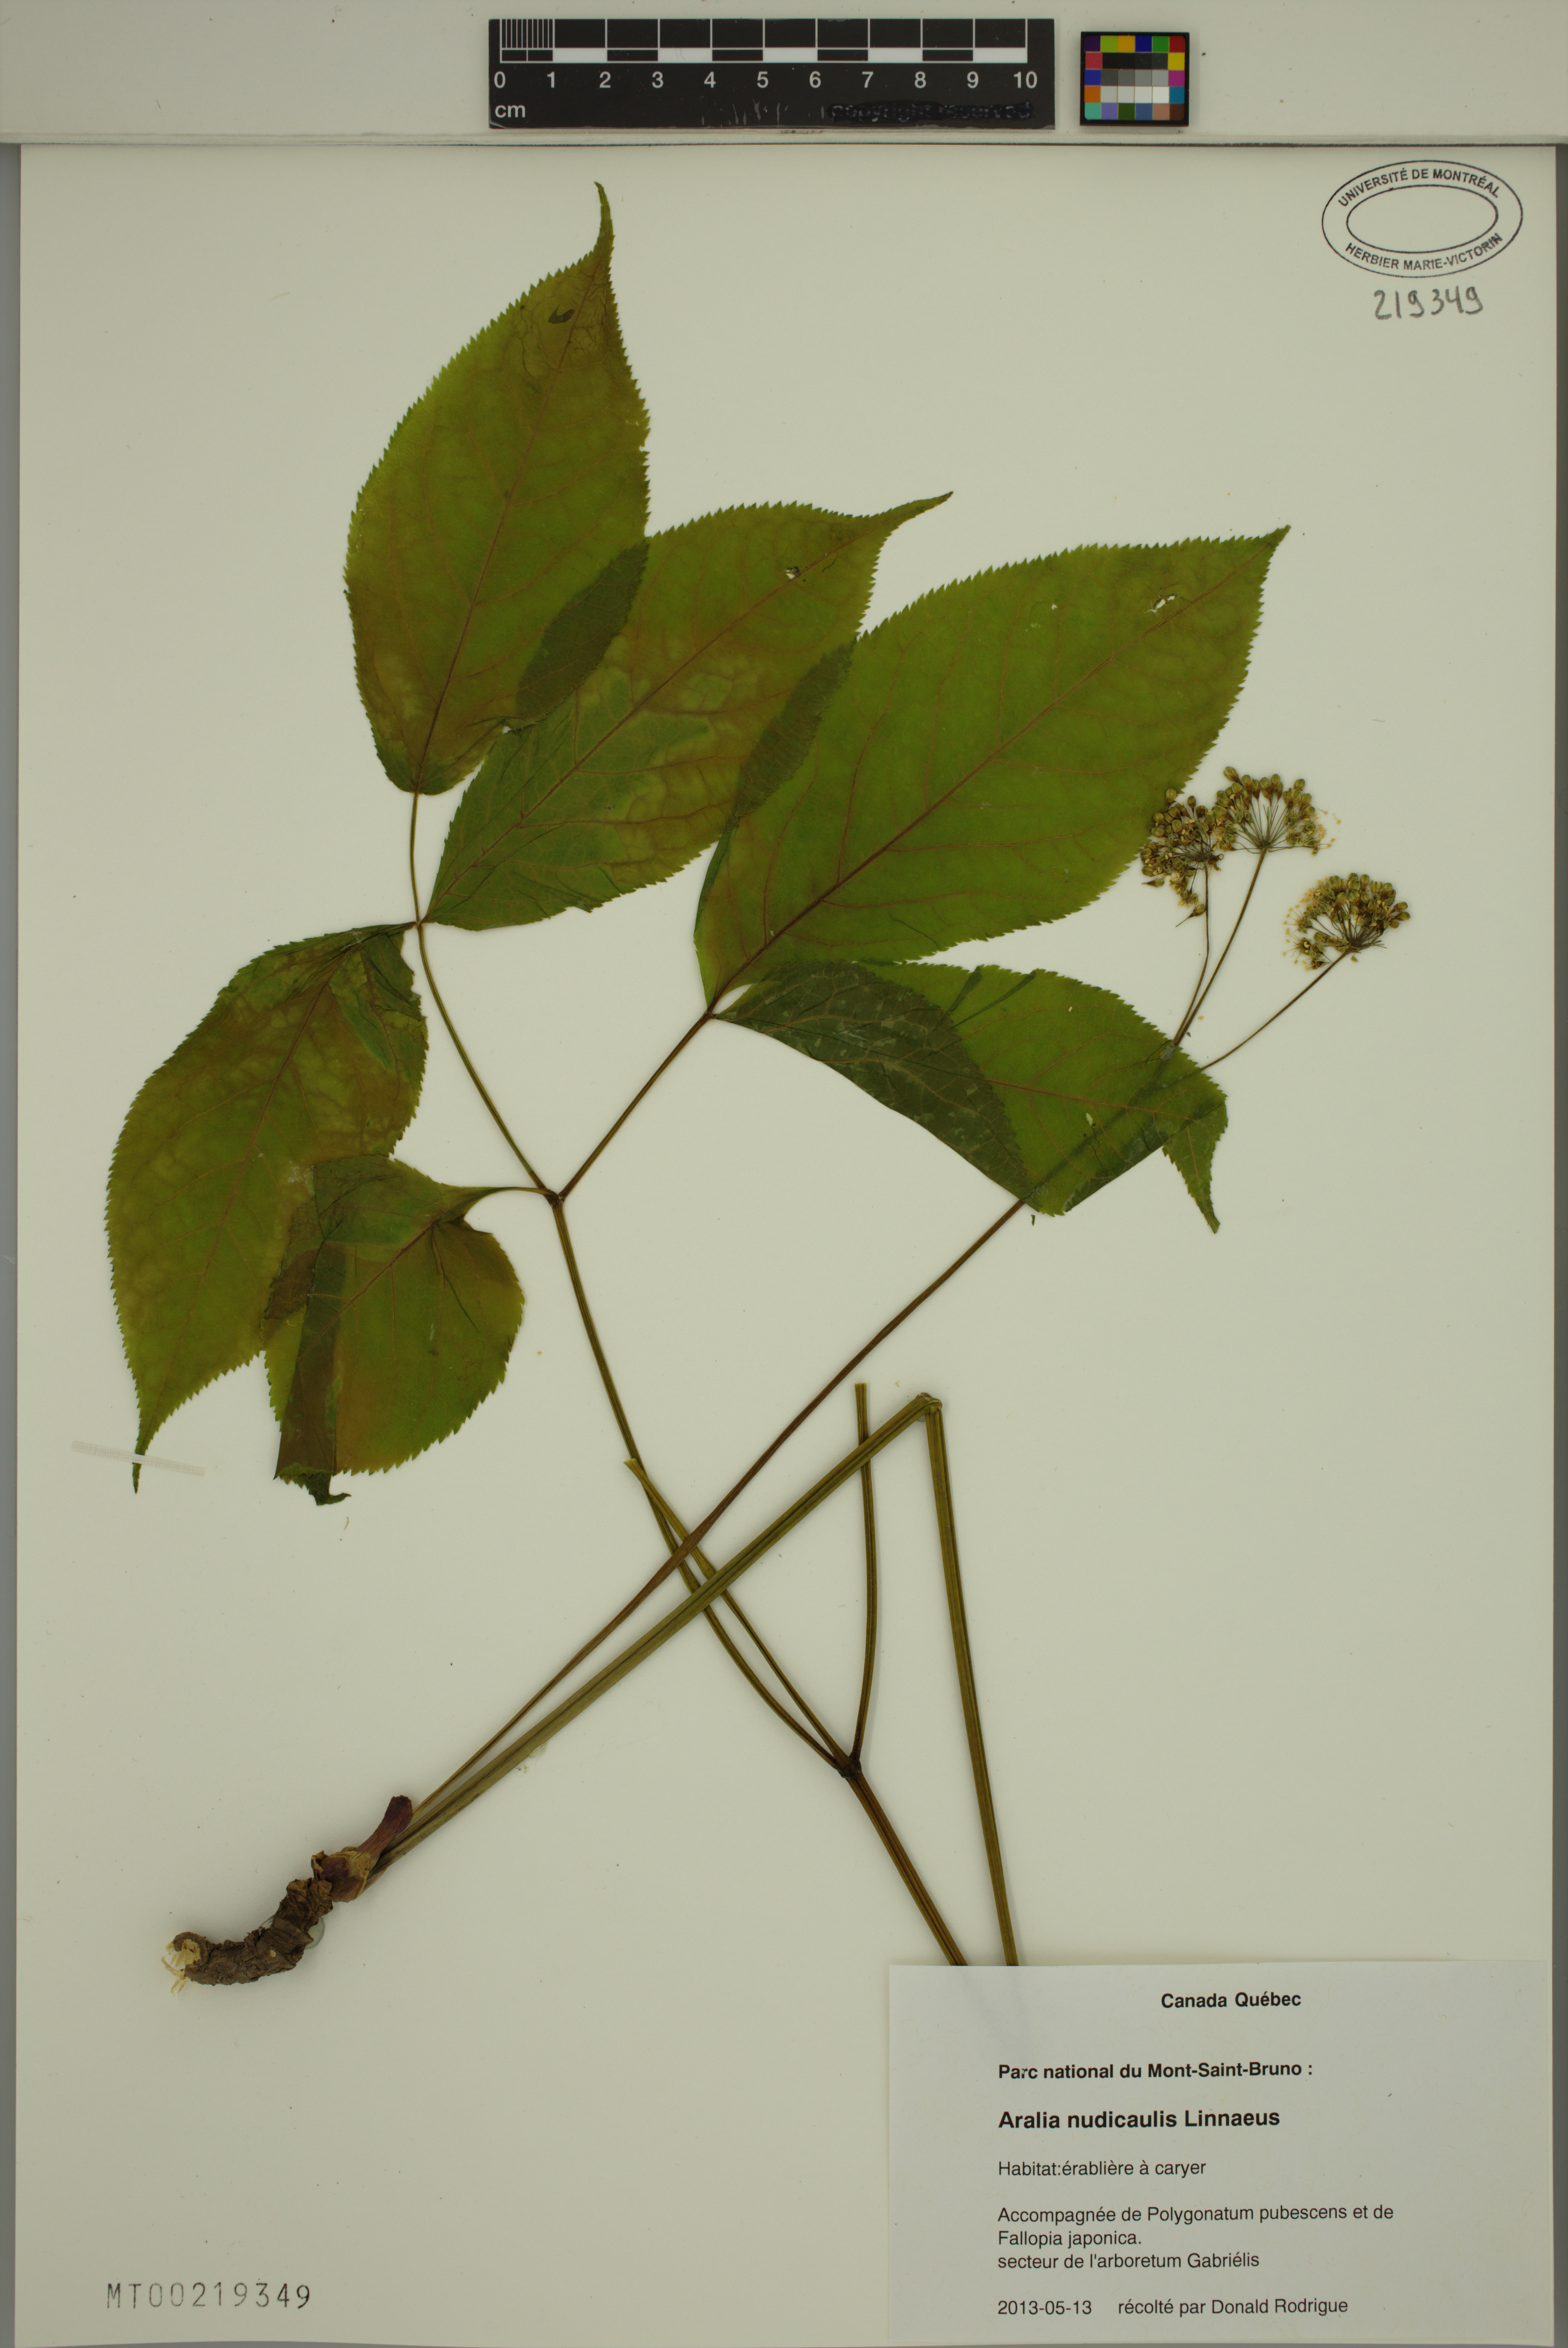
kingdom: Plantae
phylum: Tracheophyta
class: Magnoliopsida
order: Apiales
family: Araliaceae
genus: Aralia
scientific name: Aralia nudicaulis
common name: Wild sarsaparilla
